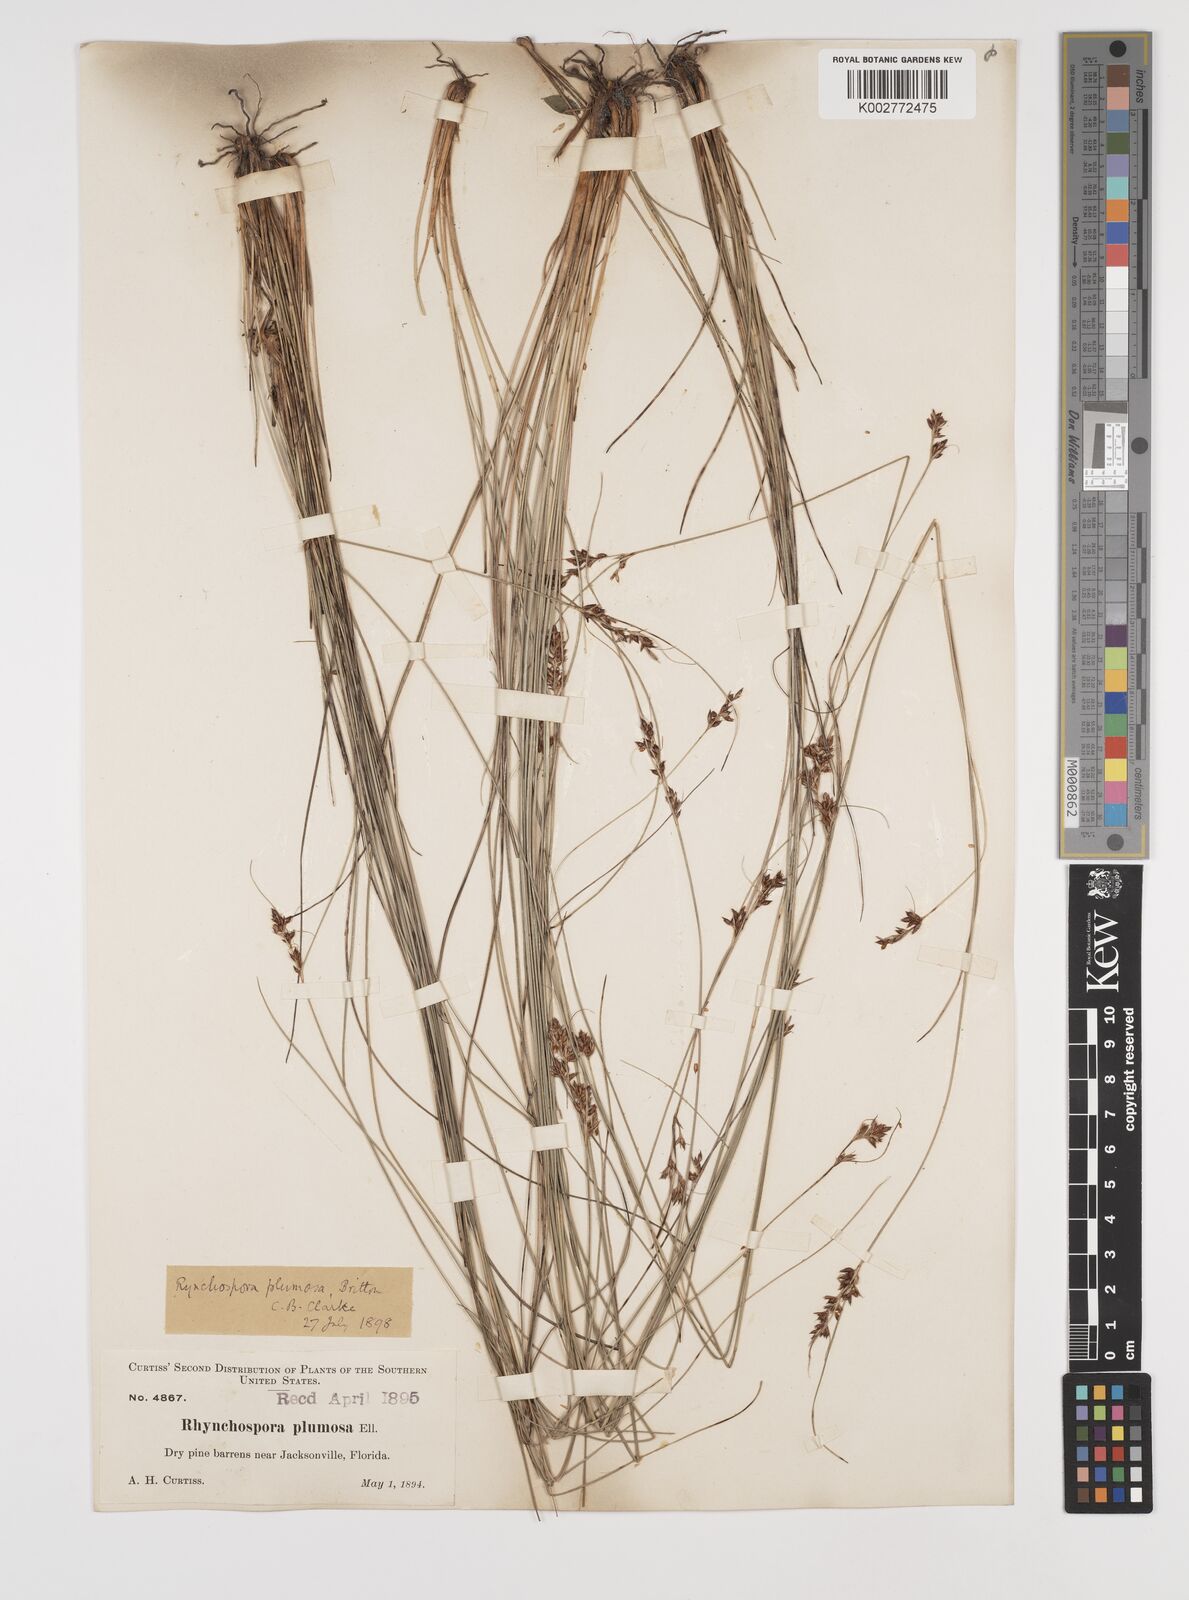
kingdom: Plantae
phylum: Tracheophyta
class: Liliopsida
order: Poales
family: Cyperaceae
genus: Rhynchospora
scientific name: Rhynchospora plumosa
